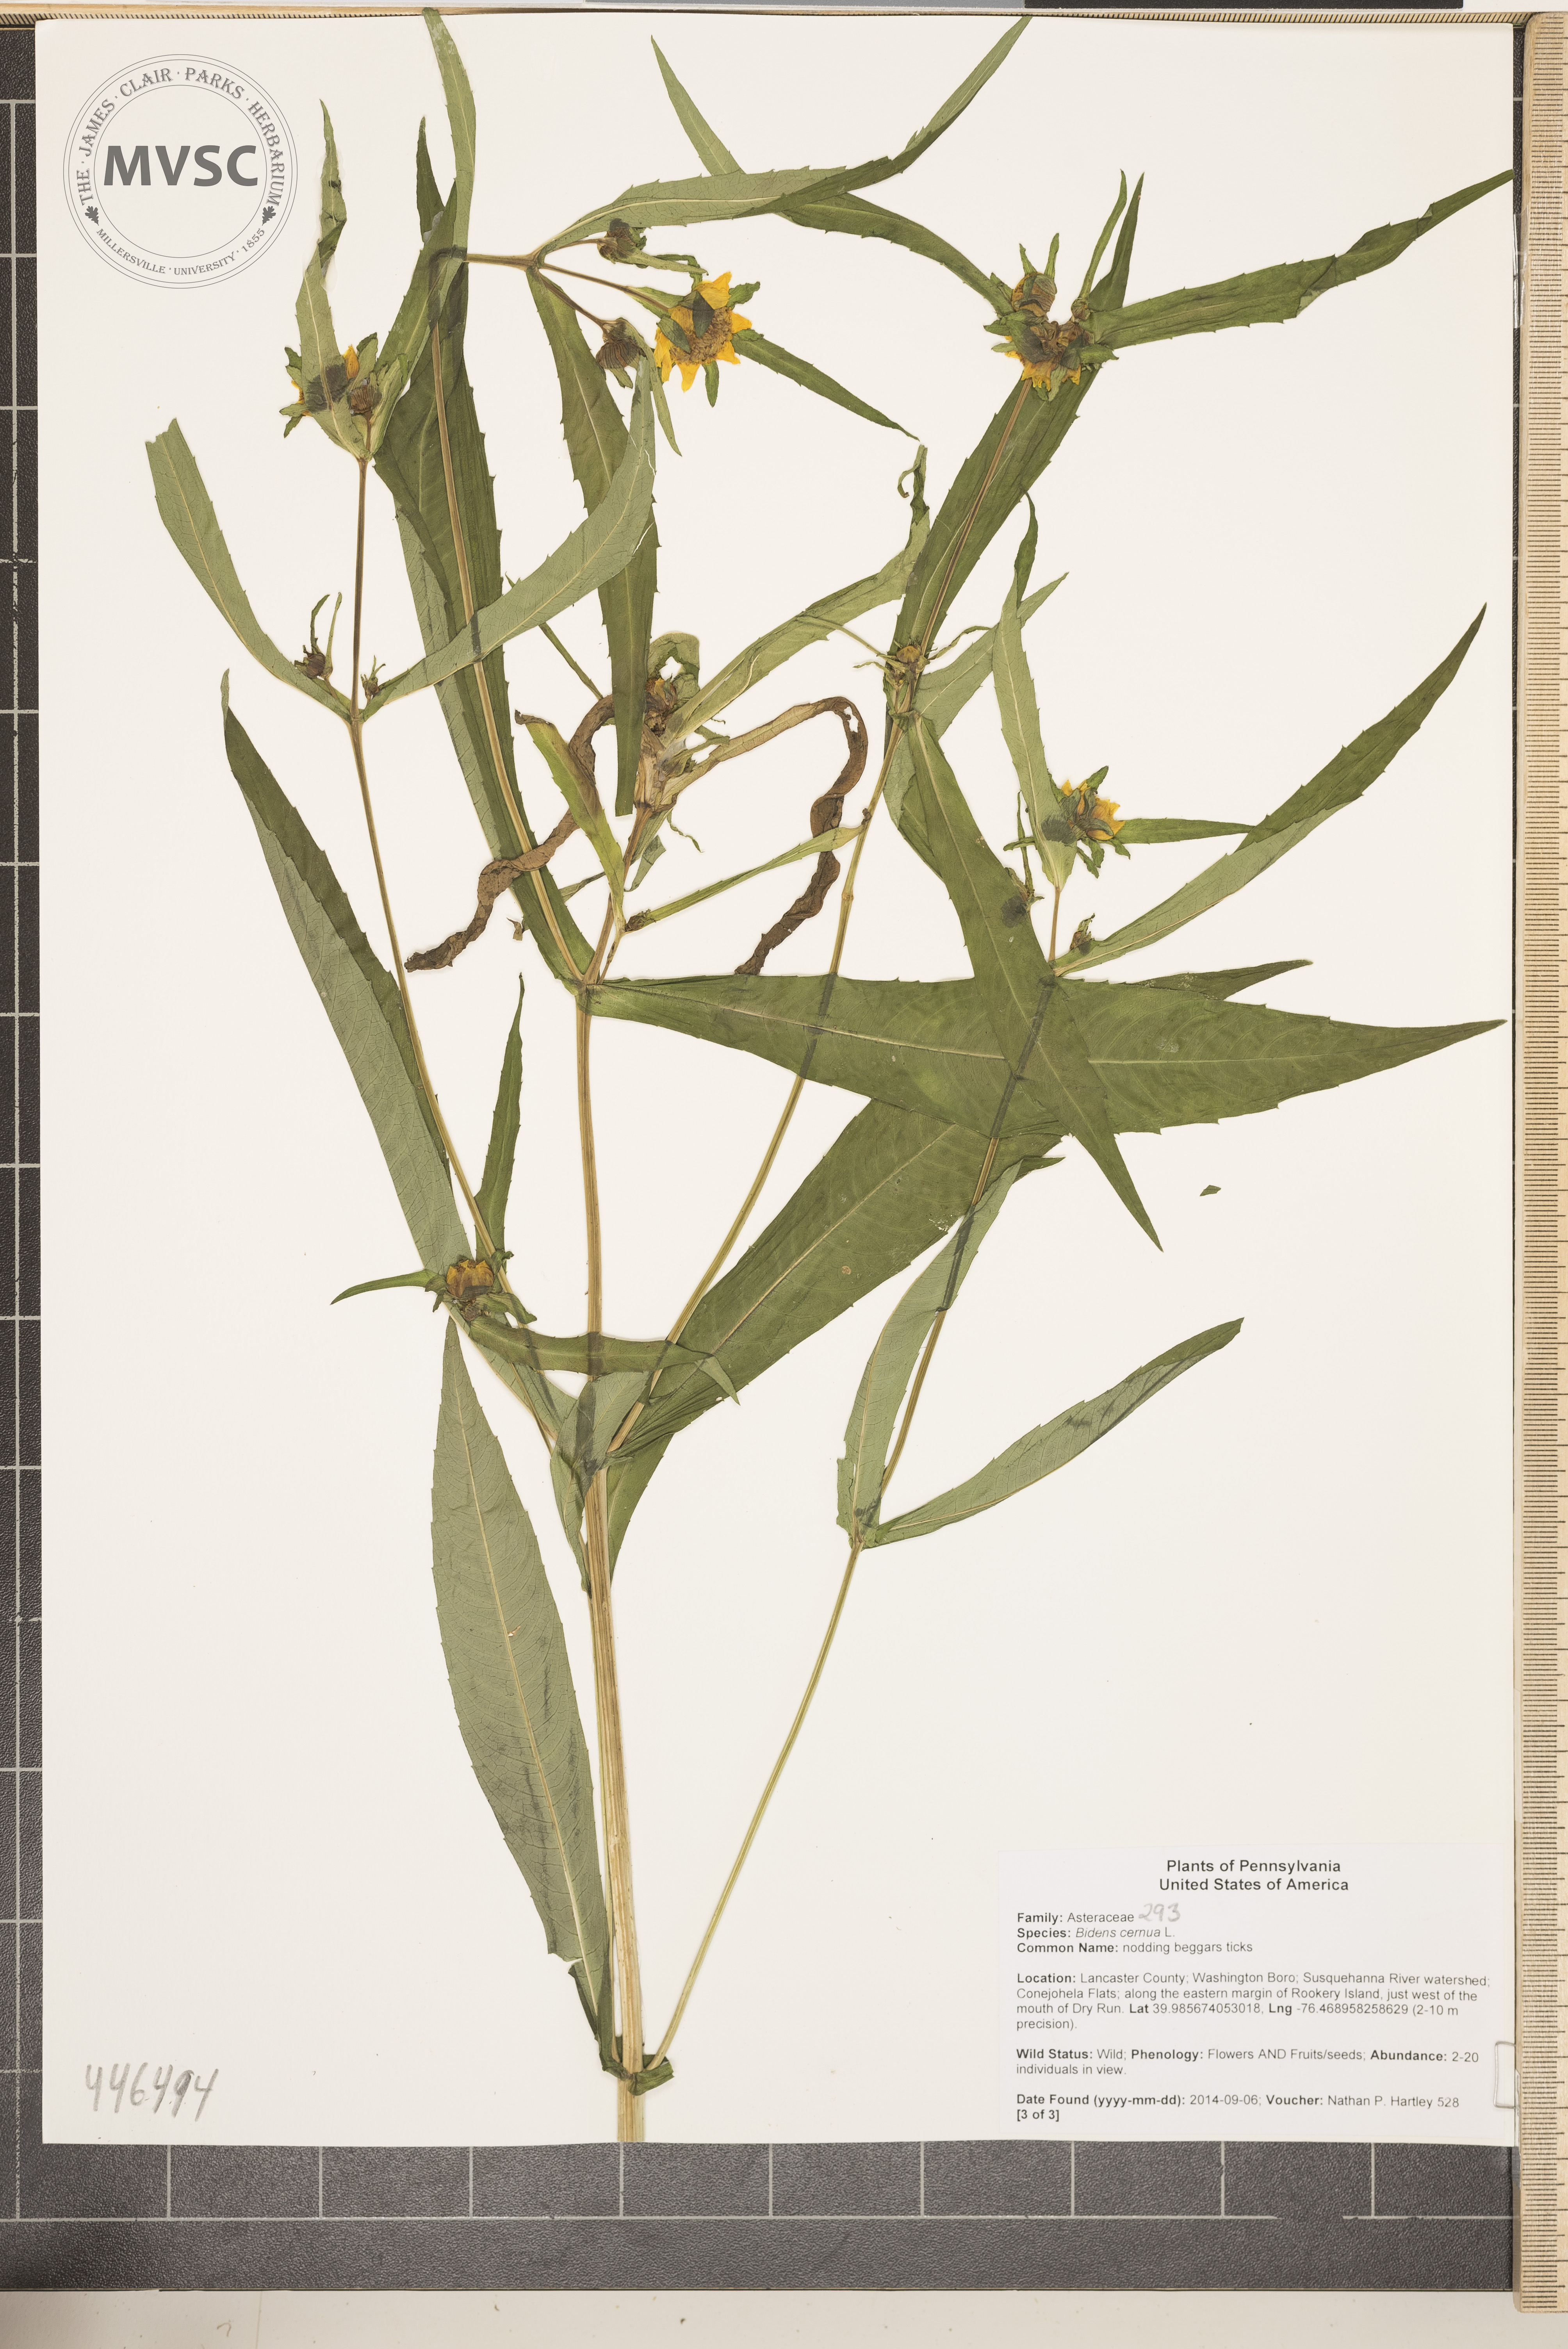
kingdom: Plantae
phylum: Tracheophyta
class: Magnoliopsida
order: Asterales
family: Asteraceae
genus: Bidens
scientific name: Bidens cernua
